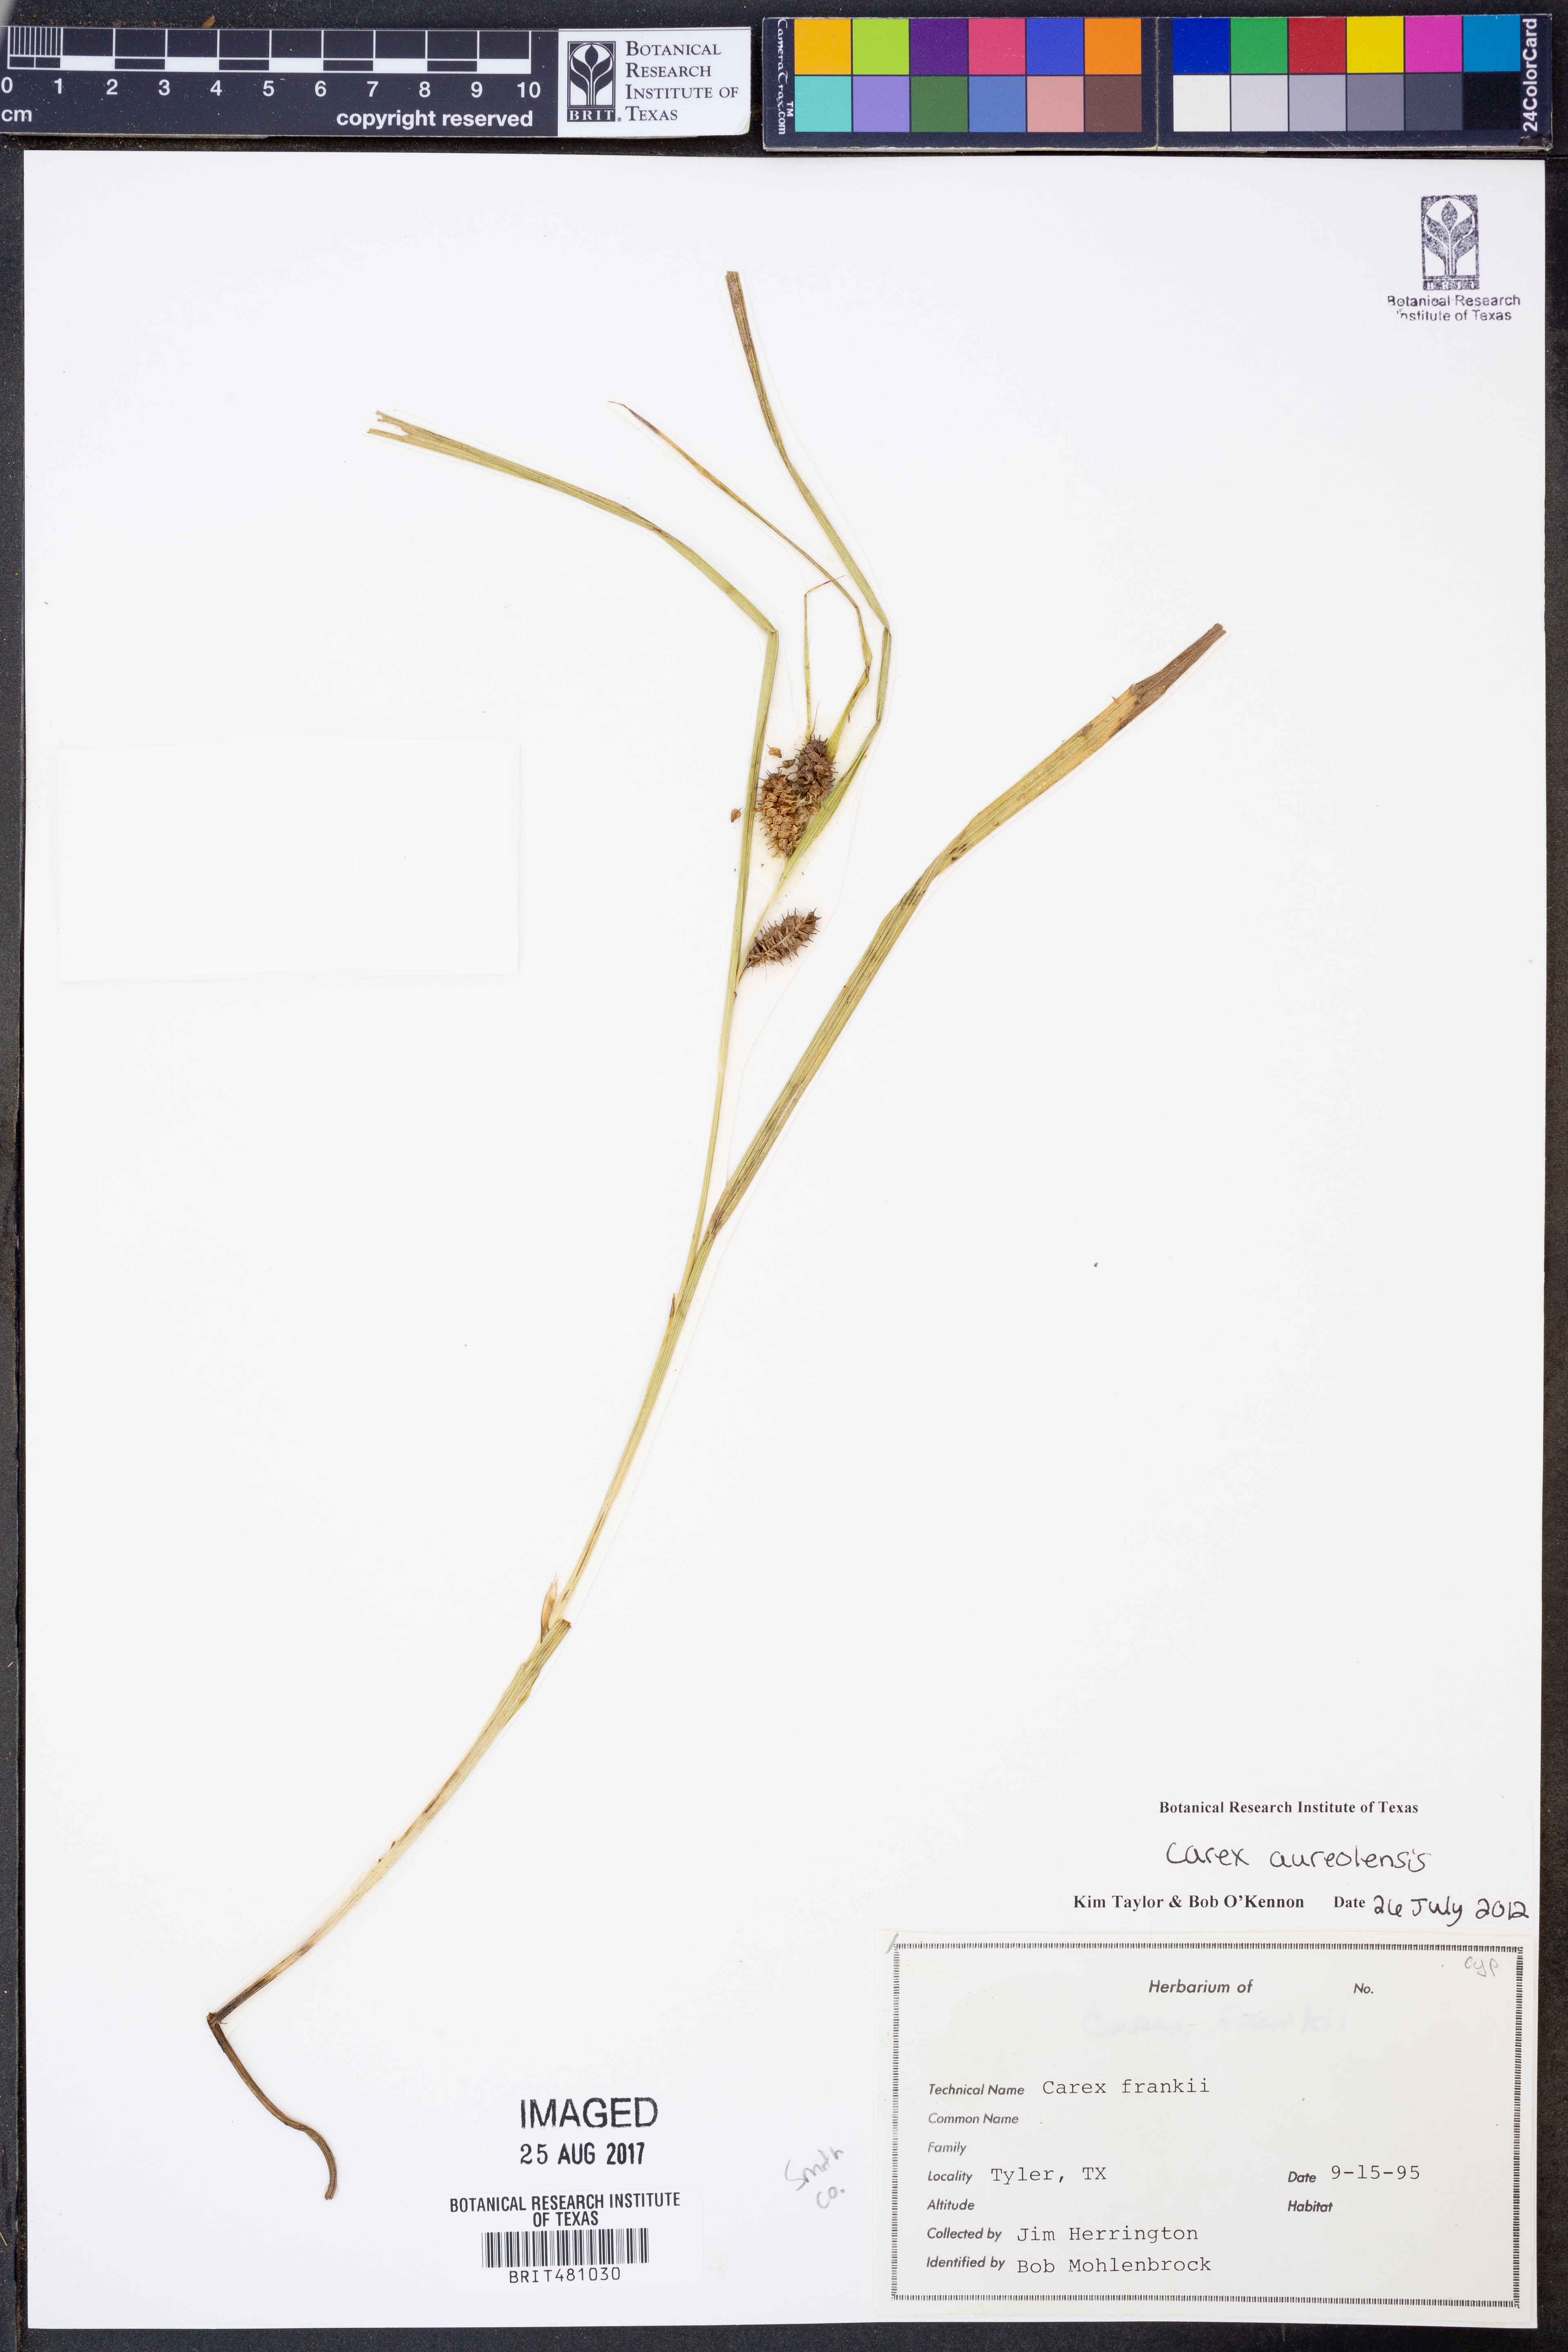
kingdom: Plantae
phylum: Tracheophyta
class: Liliopsida
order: Poales
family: Cyperaceae
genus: Carex
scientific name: Carex aureolensis
